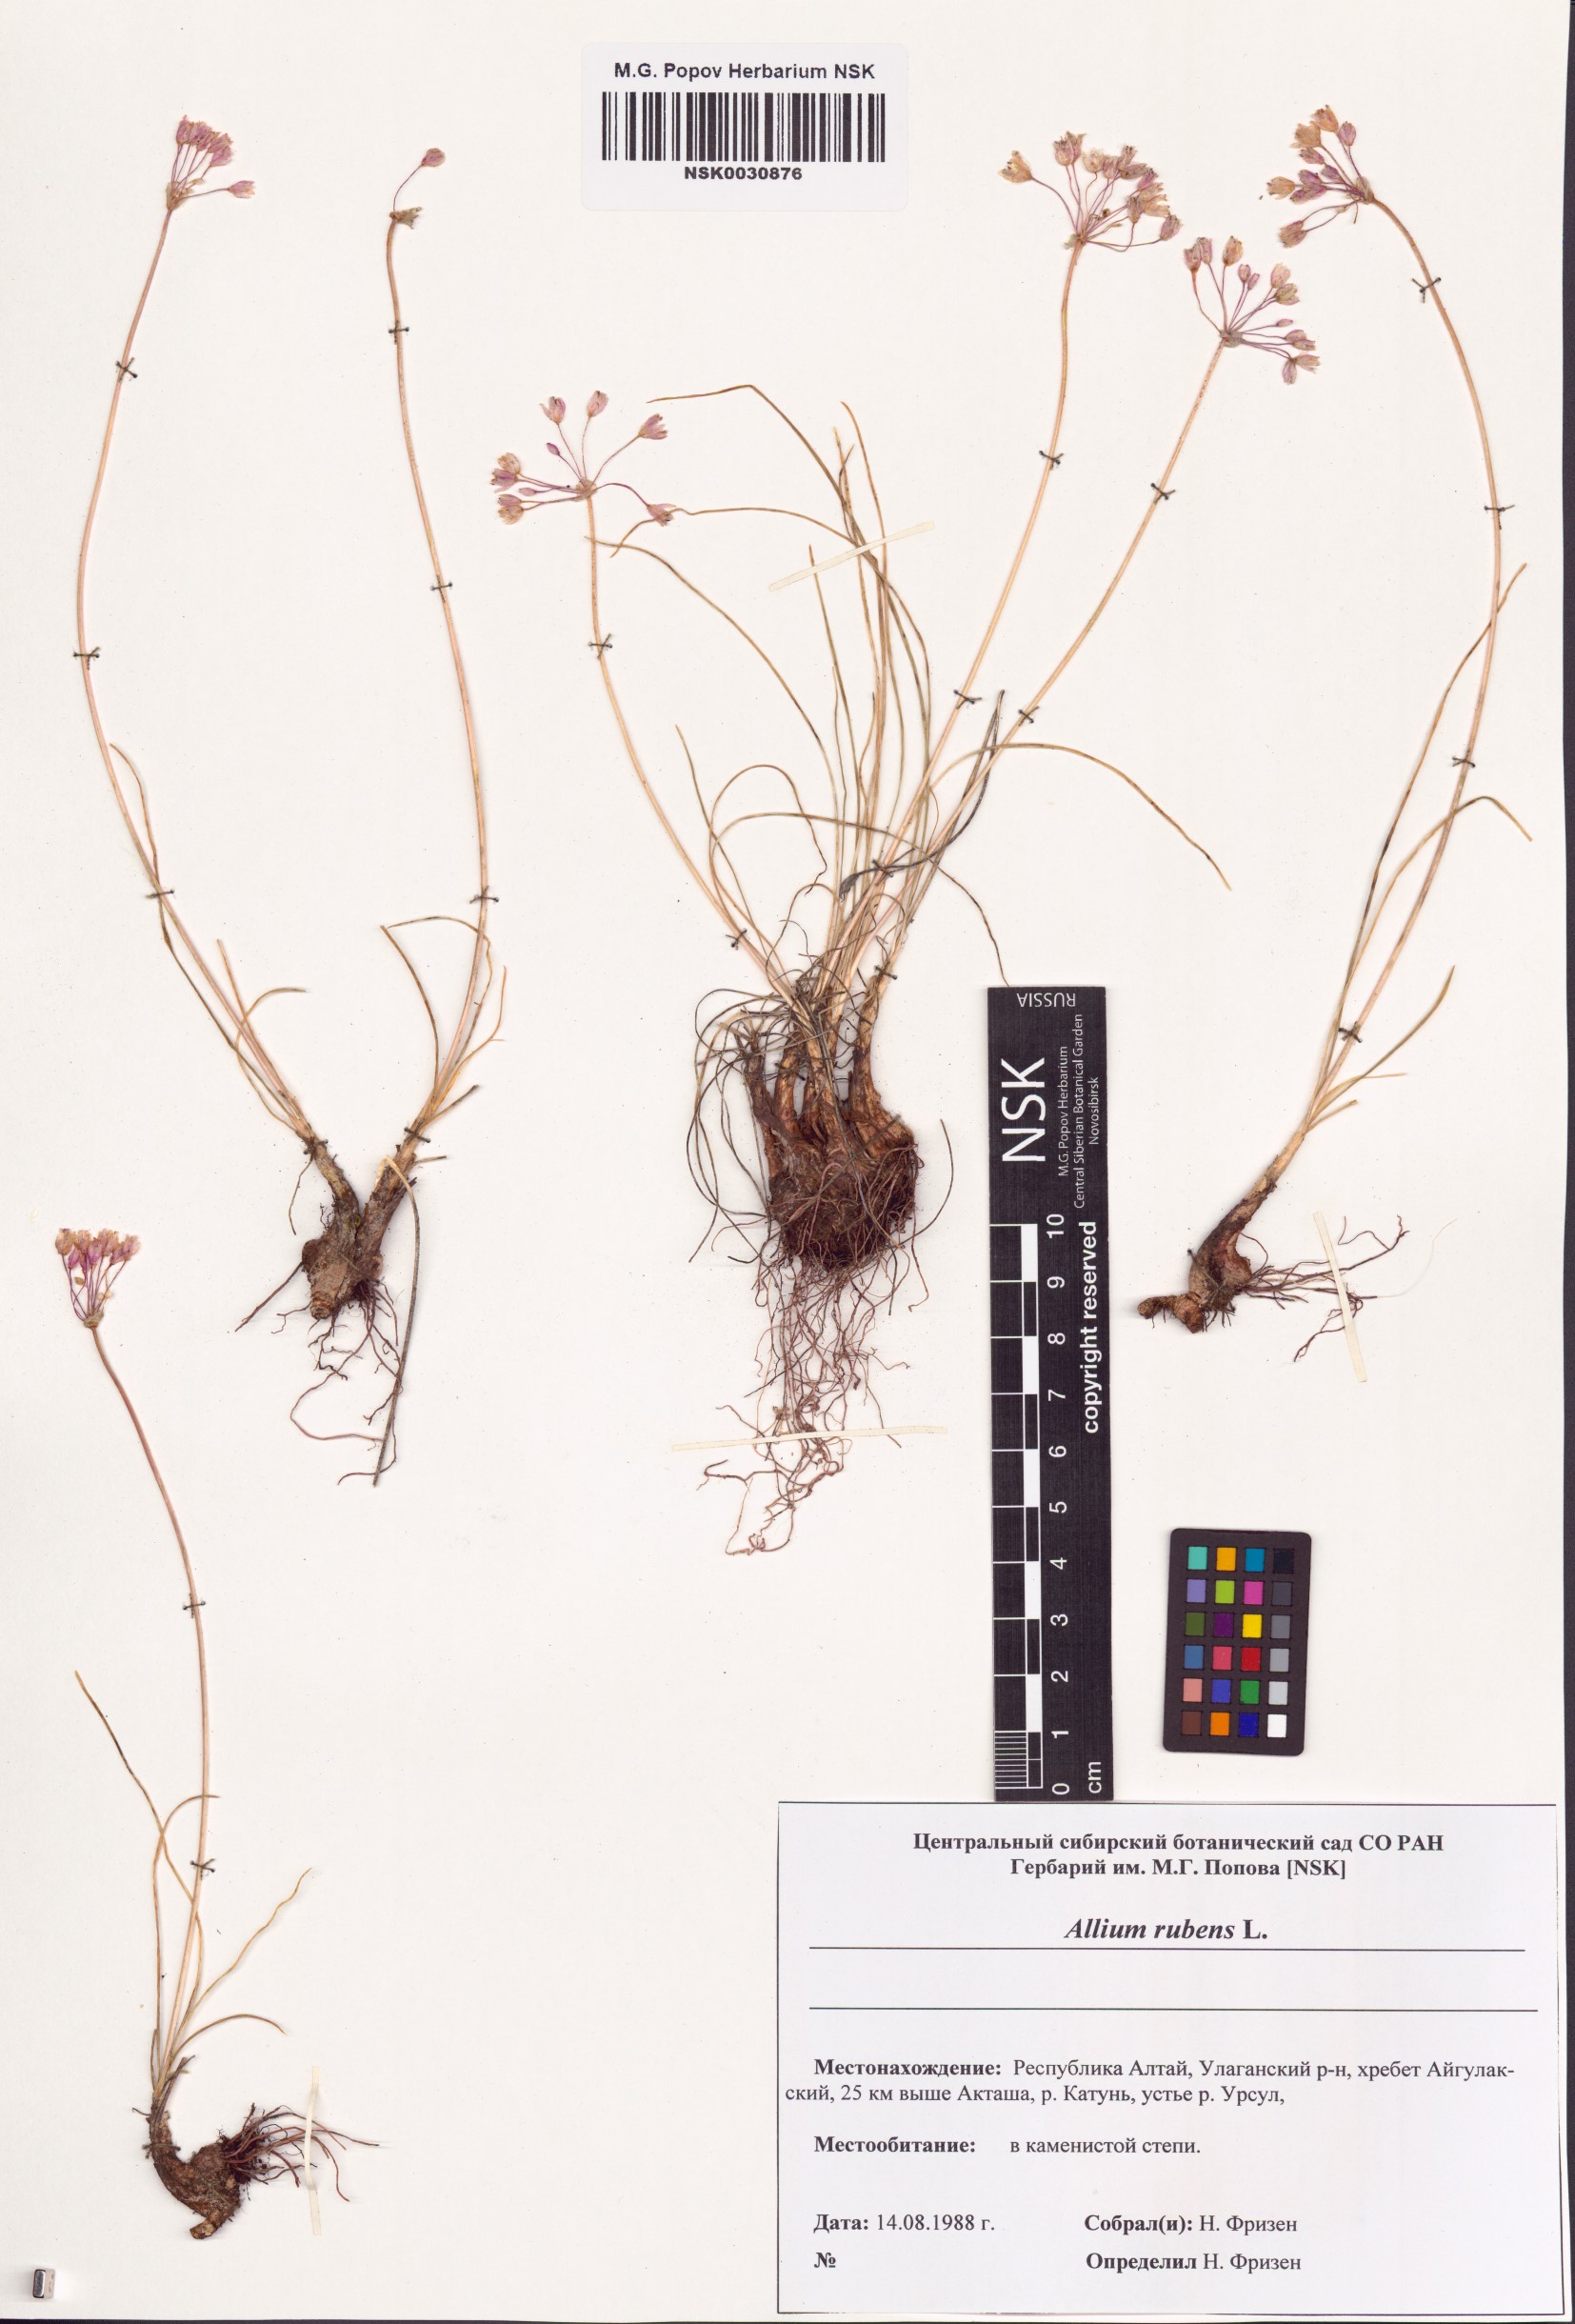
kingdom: Plantae
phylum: Tracheophyta
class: Liliopsida
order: Asparagales
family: Amaryllidaceae
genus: Allium
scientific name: Allium rubens
